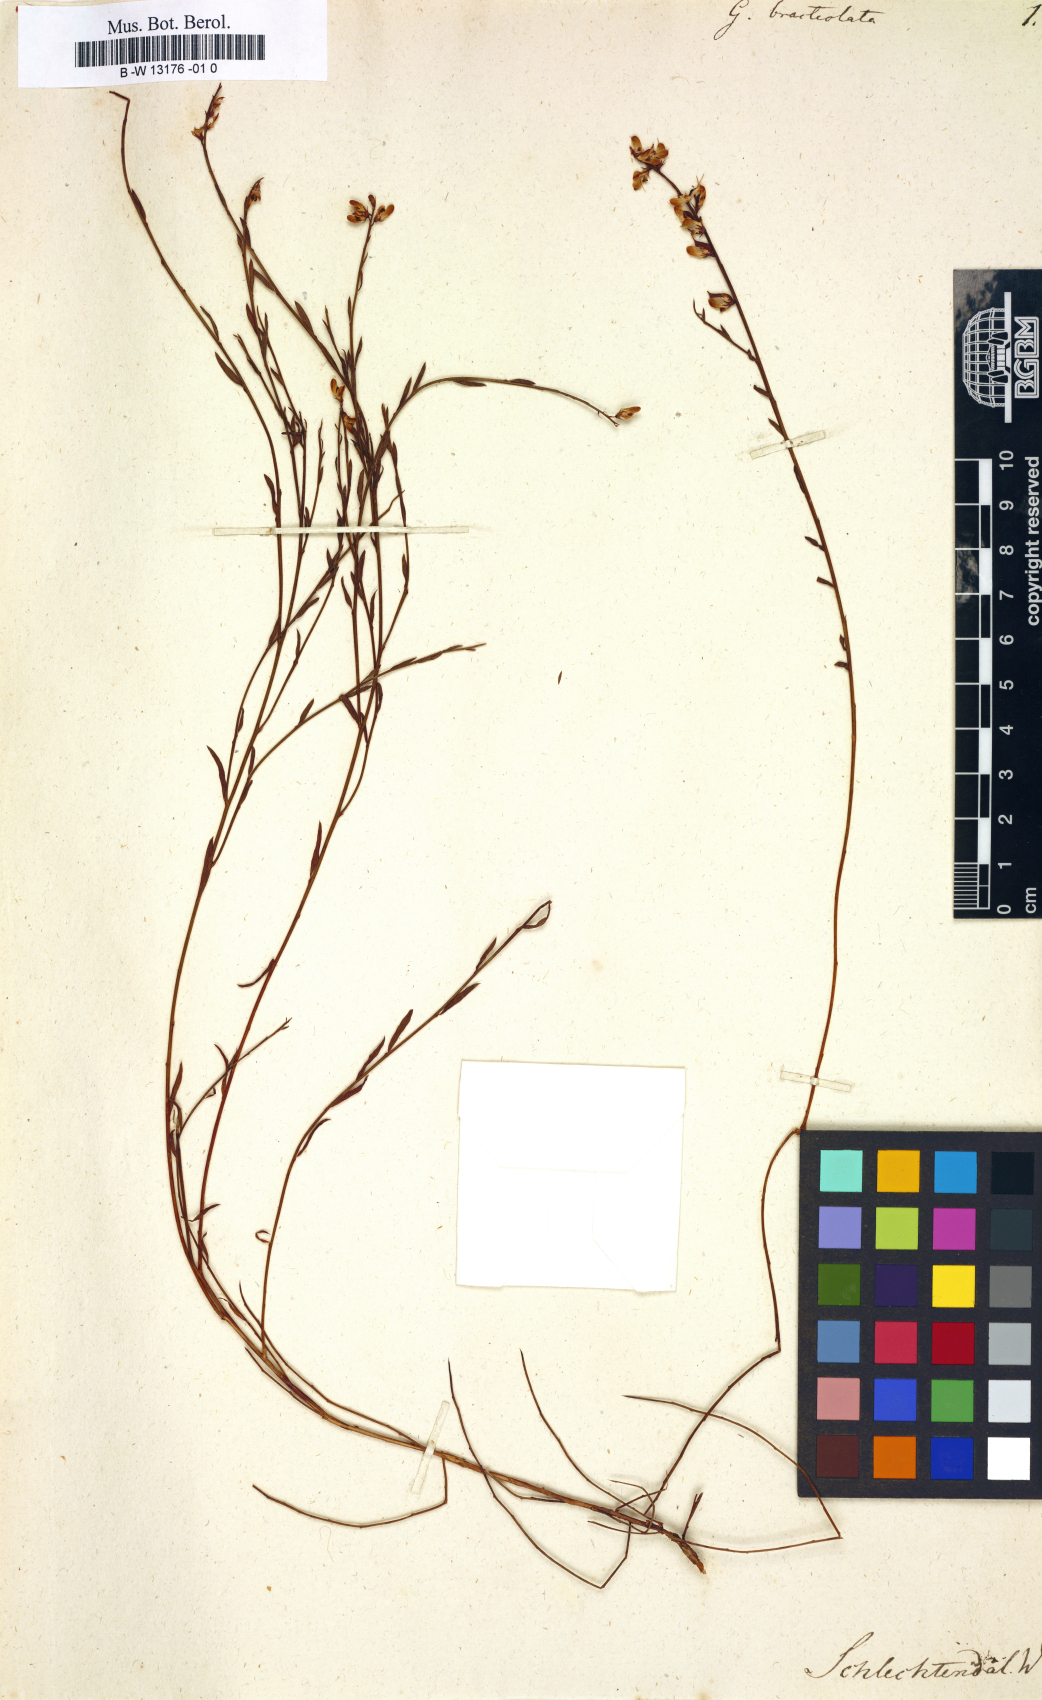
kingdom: Plantae
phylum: Tracheophyta
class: Magnoliopsida
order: Fabales
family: Fabaceae
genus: Genista
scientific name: Genista
